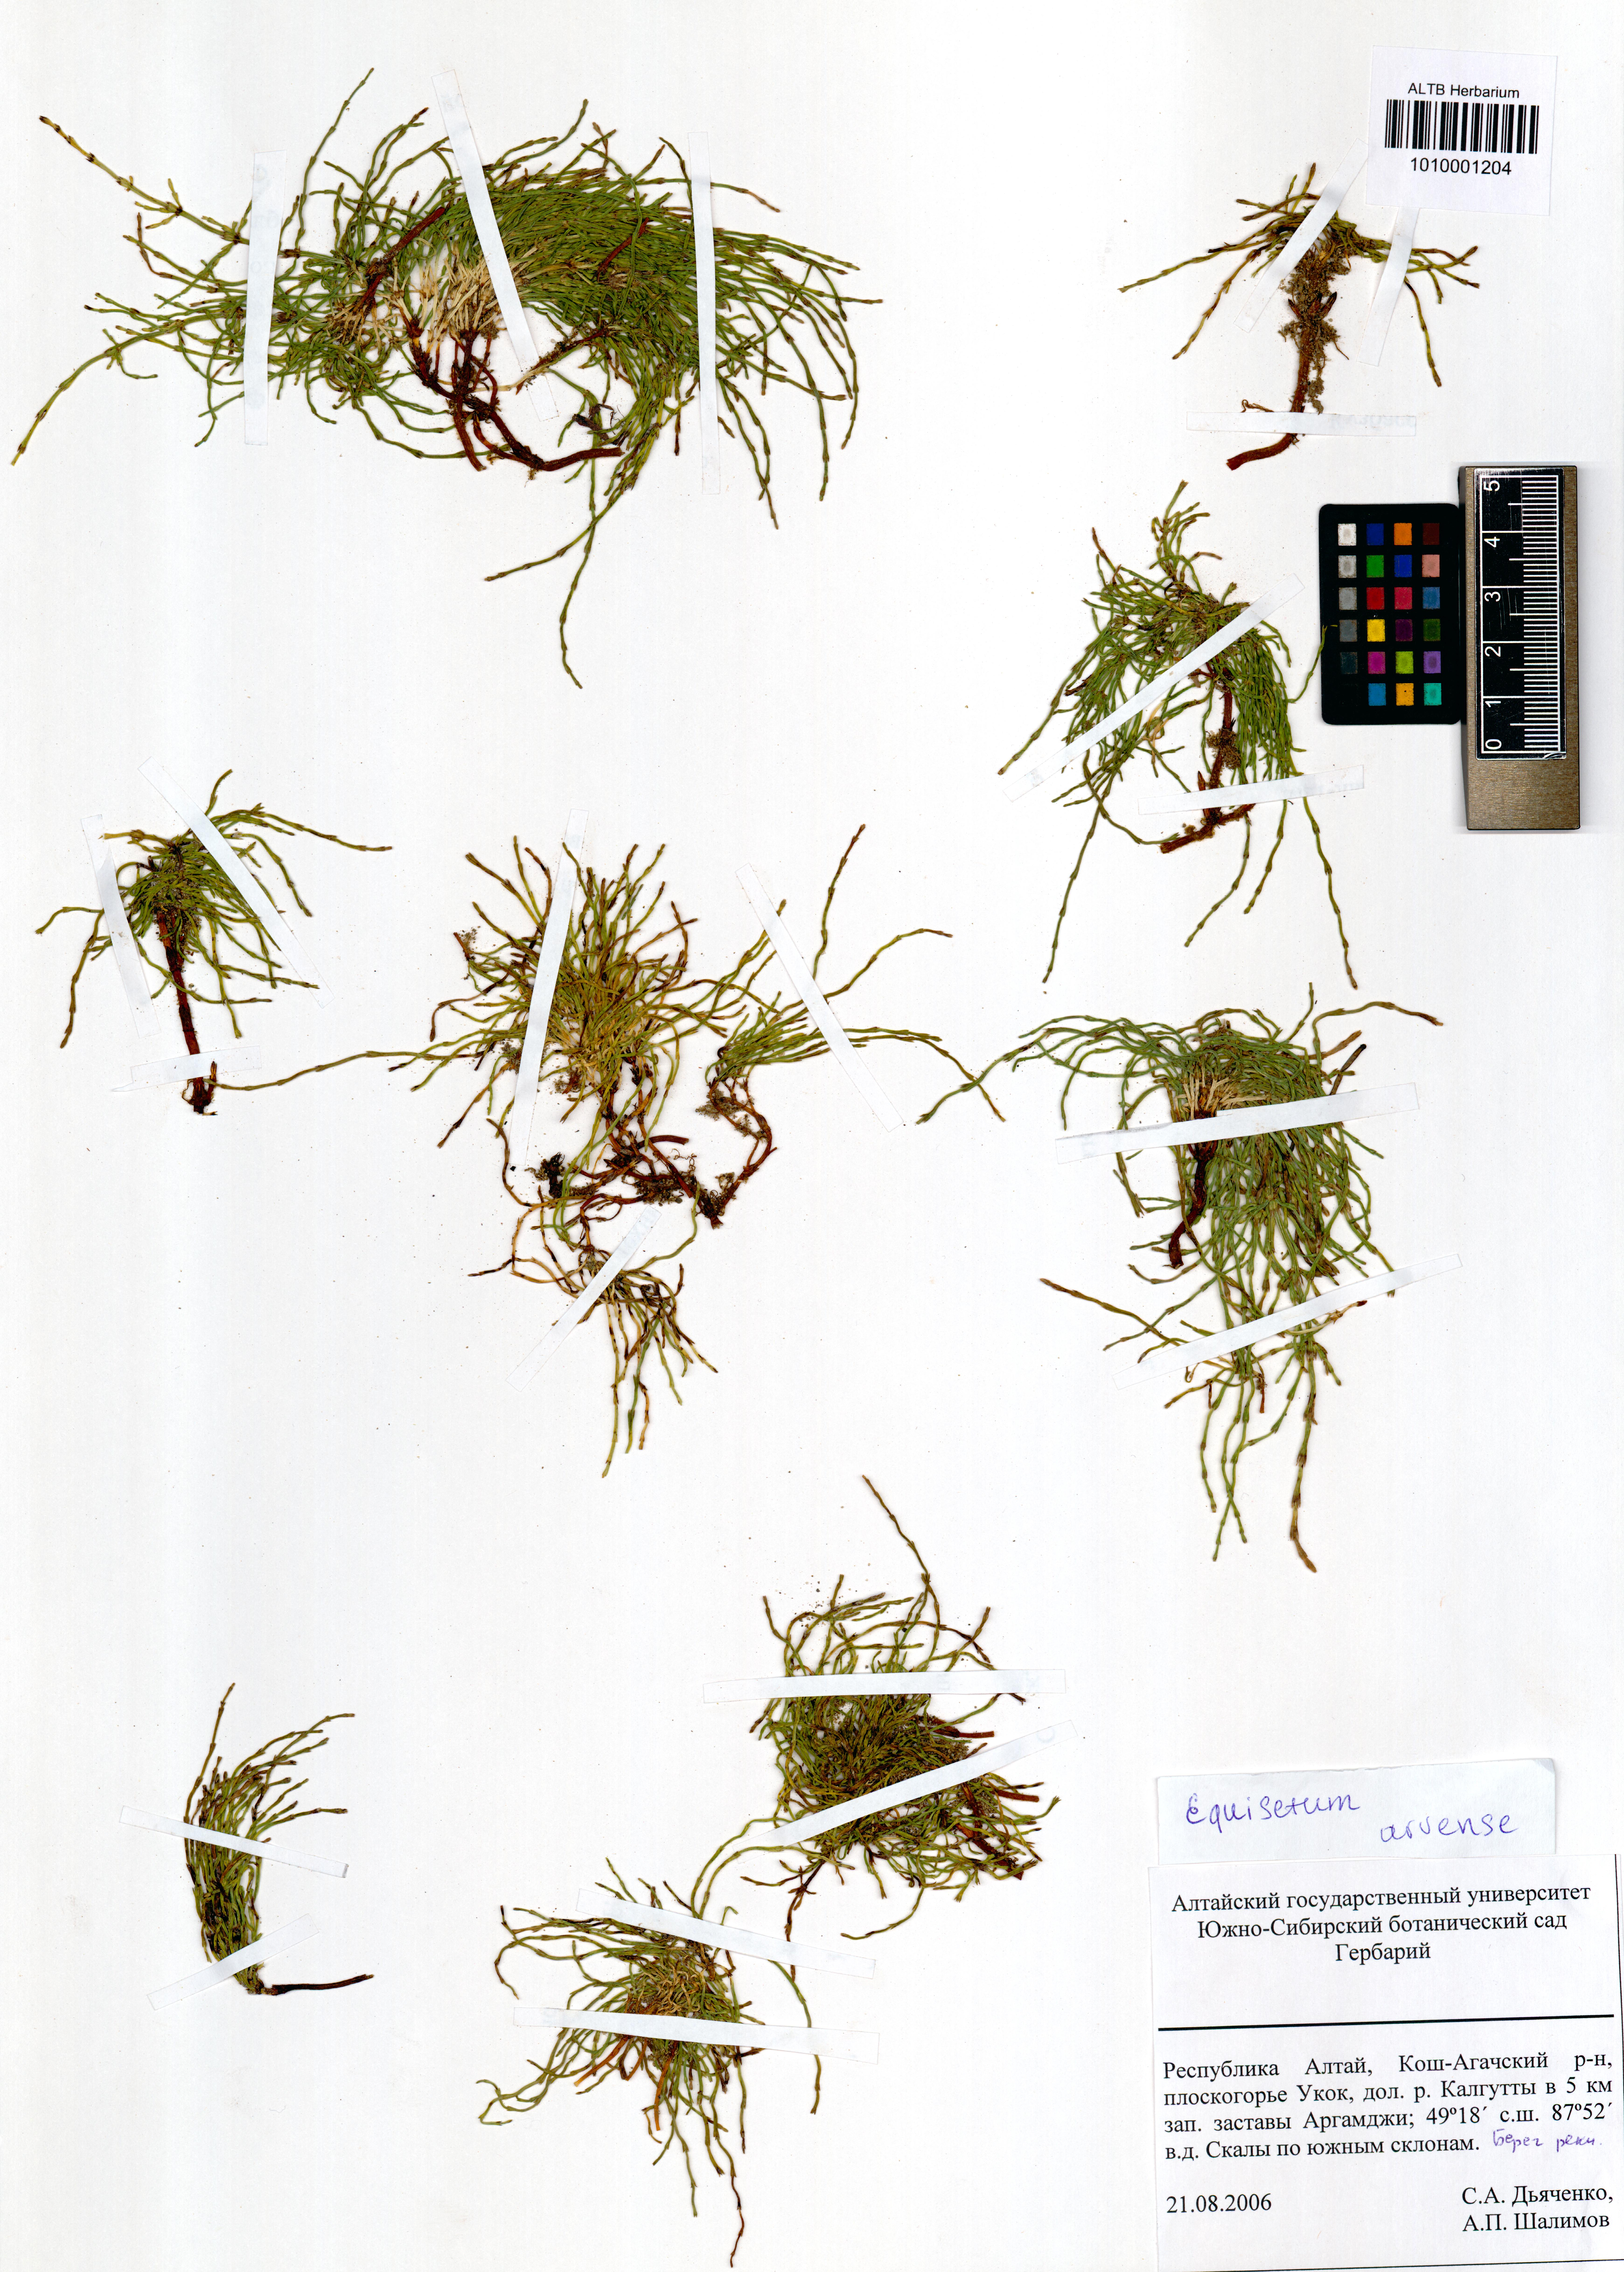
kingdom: Plantae
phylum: Tracheophyta
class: Polypodiopsida
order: Equisetales
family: Equisetaceae
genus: Equisetum
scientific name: Equisetum arvense
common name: Field horsetail
